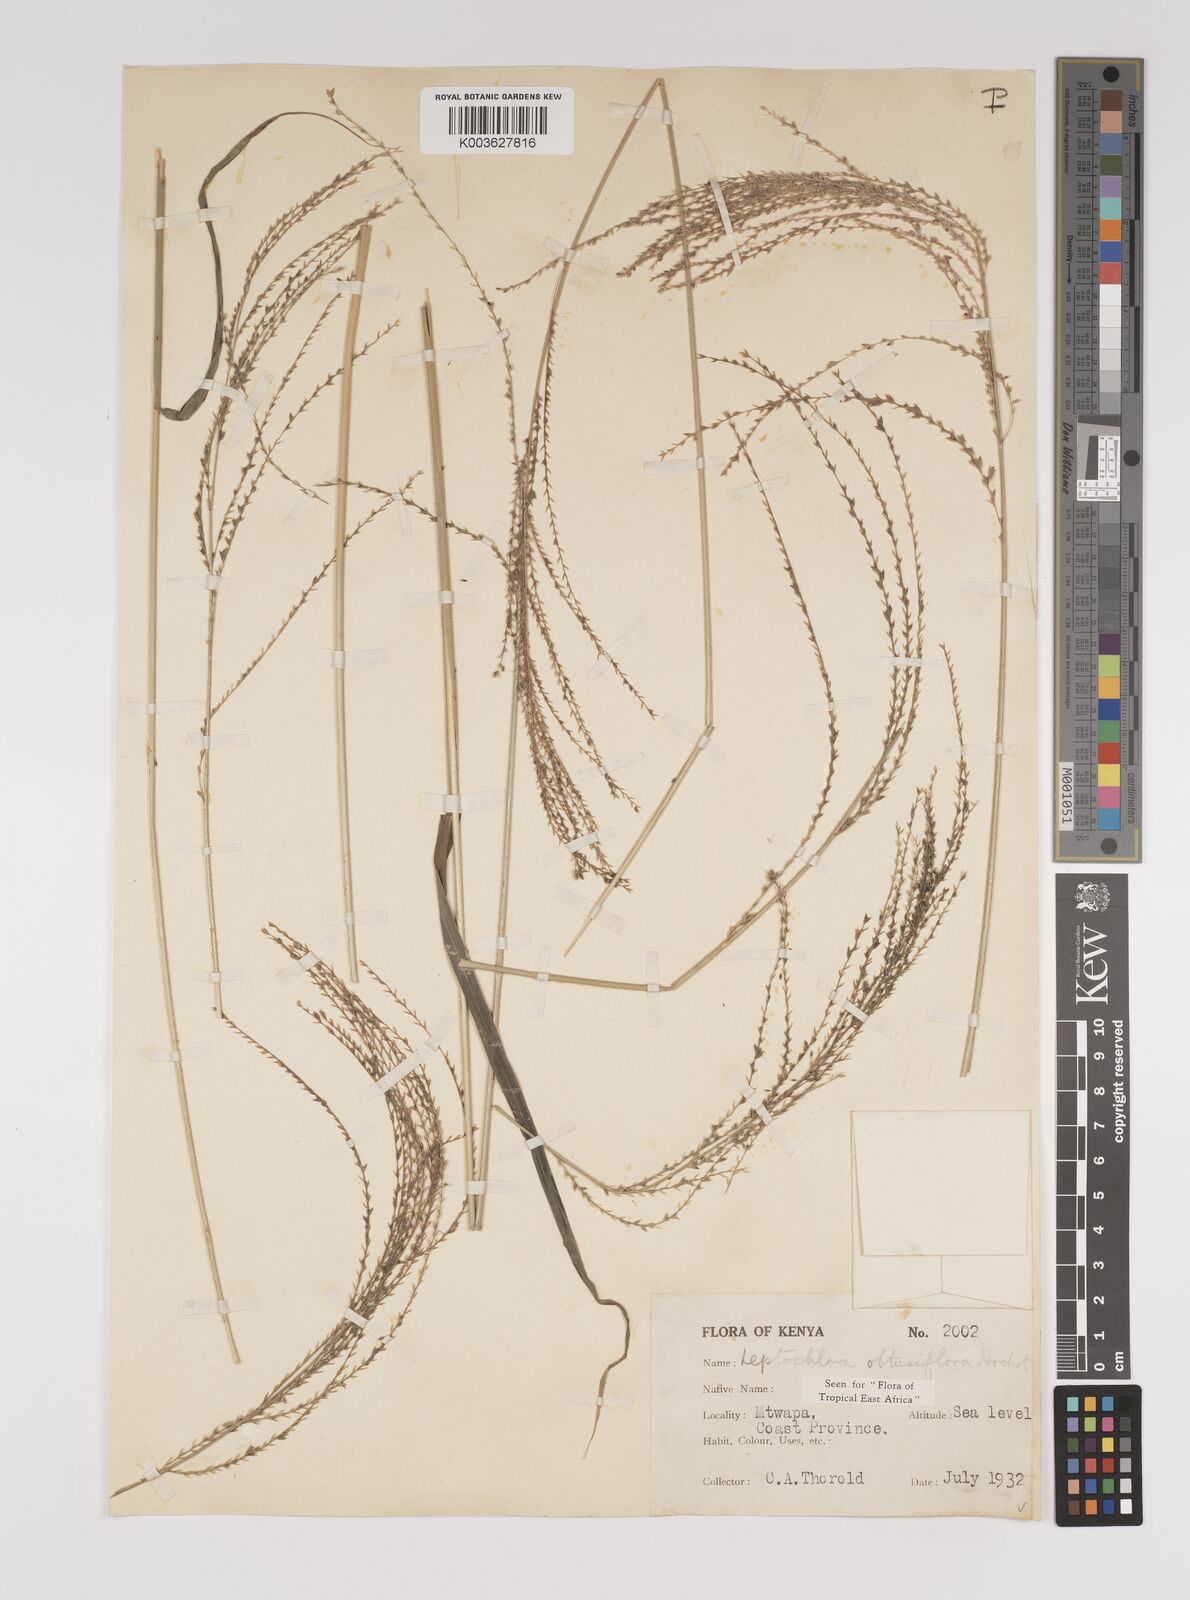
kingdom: Plantae
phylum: Tracheophyta
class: Liliopsida
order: Poales
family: Poaceae
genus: Disakisperma
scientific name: Disakisperma obtusiflorum
